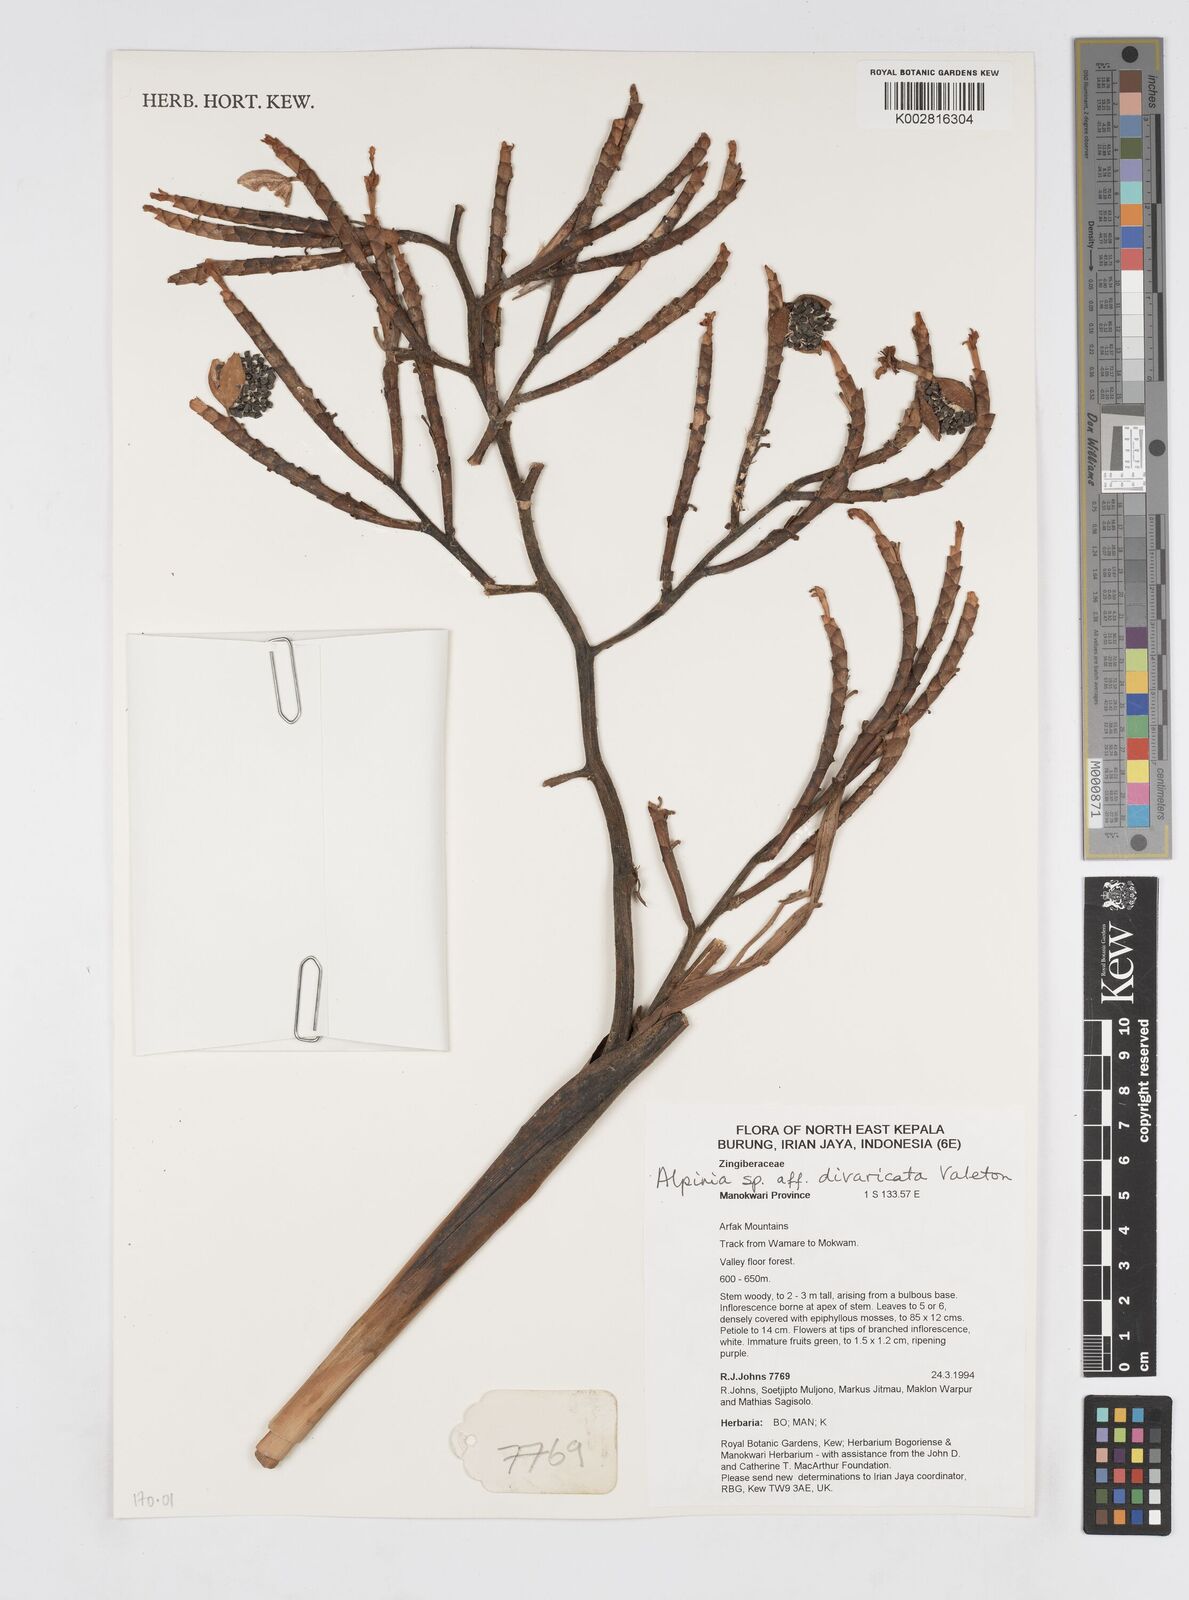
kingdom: Plantae
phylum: Tracheophyta
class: Liliopsida
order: Zingiberales
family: Zingiberaceae
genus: Alpinia
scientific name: Alpinia divaricata
